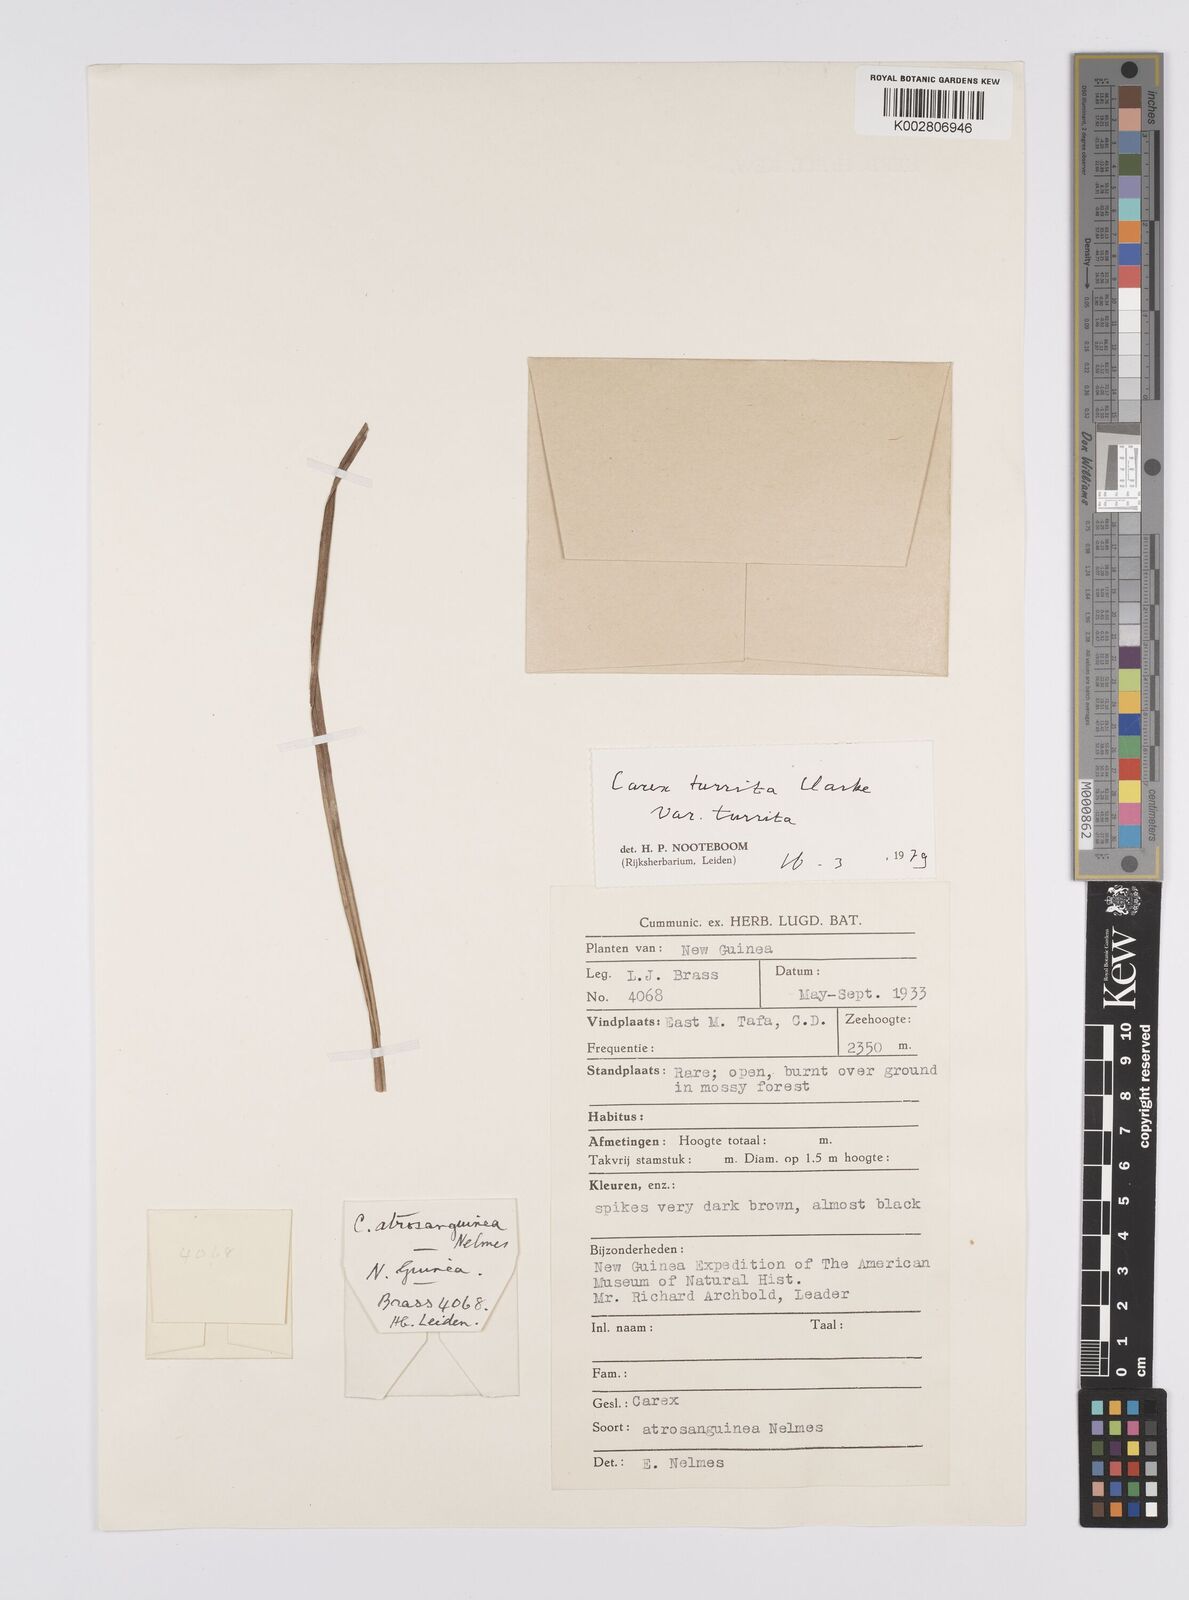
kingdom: Plantae
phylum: Tracheophyta
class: Liliopsida
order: Poales
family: Cyperaceae
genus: Carex
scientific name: Carex turrita
